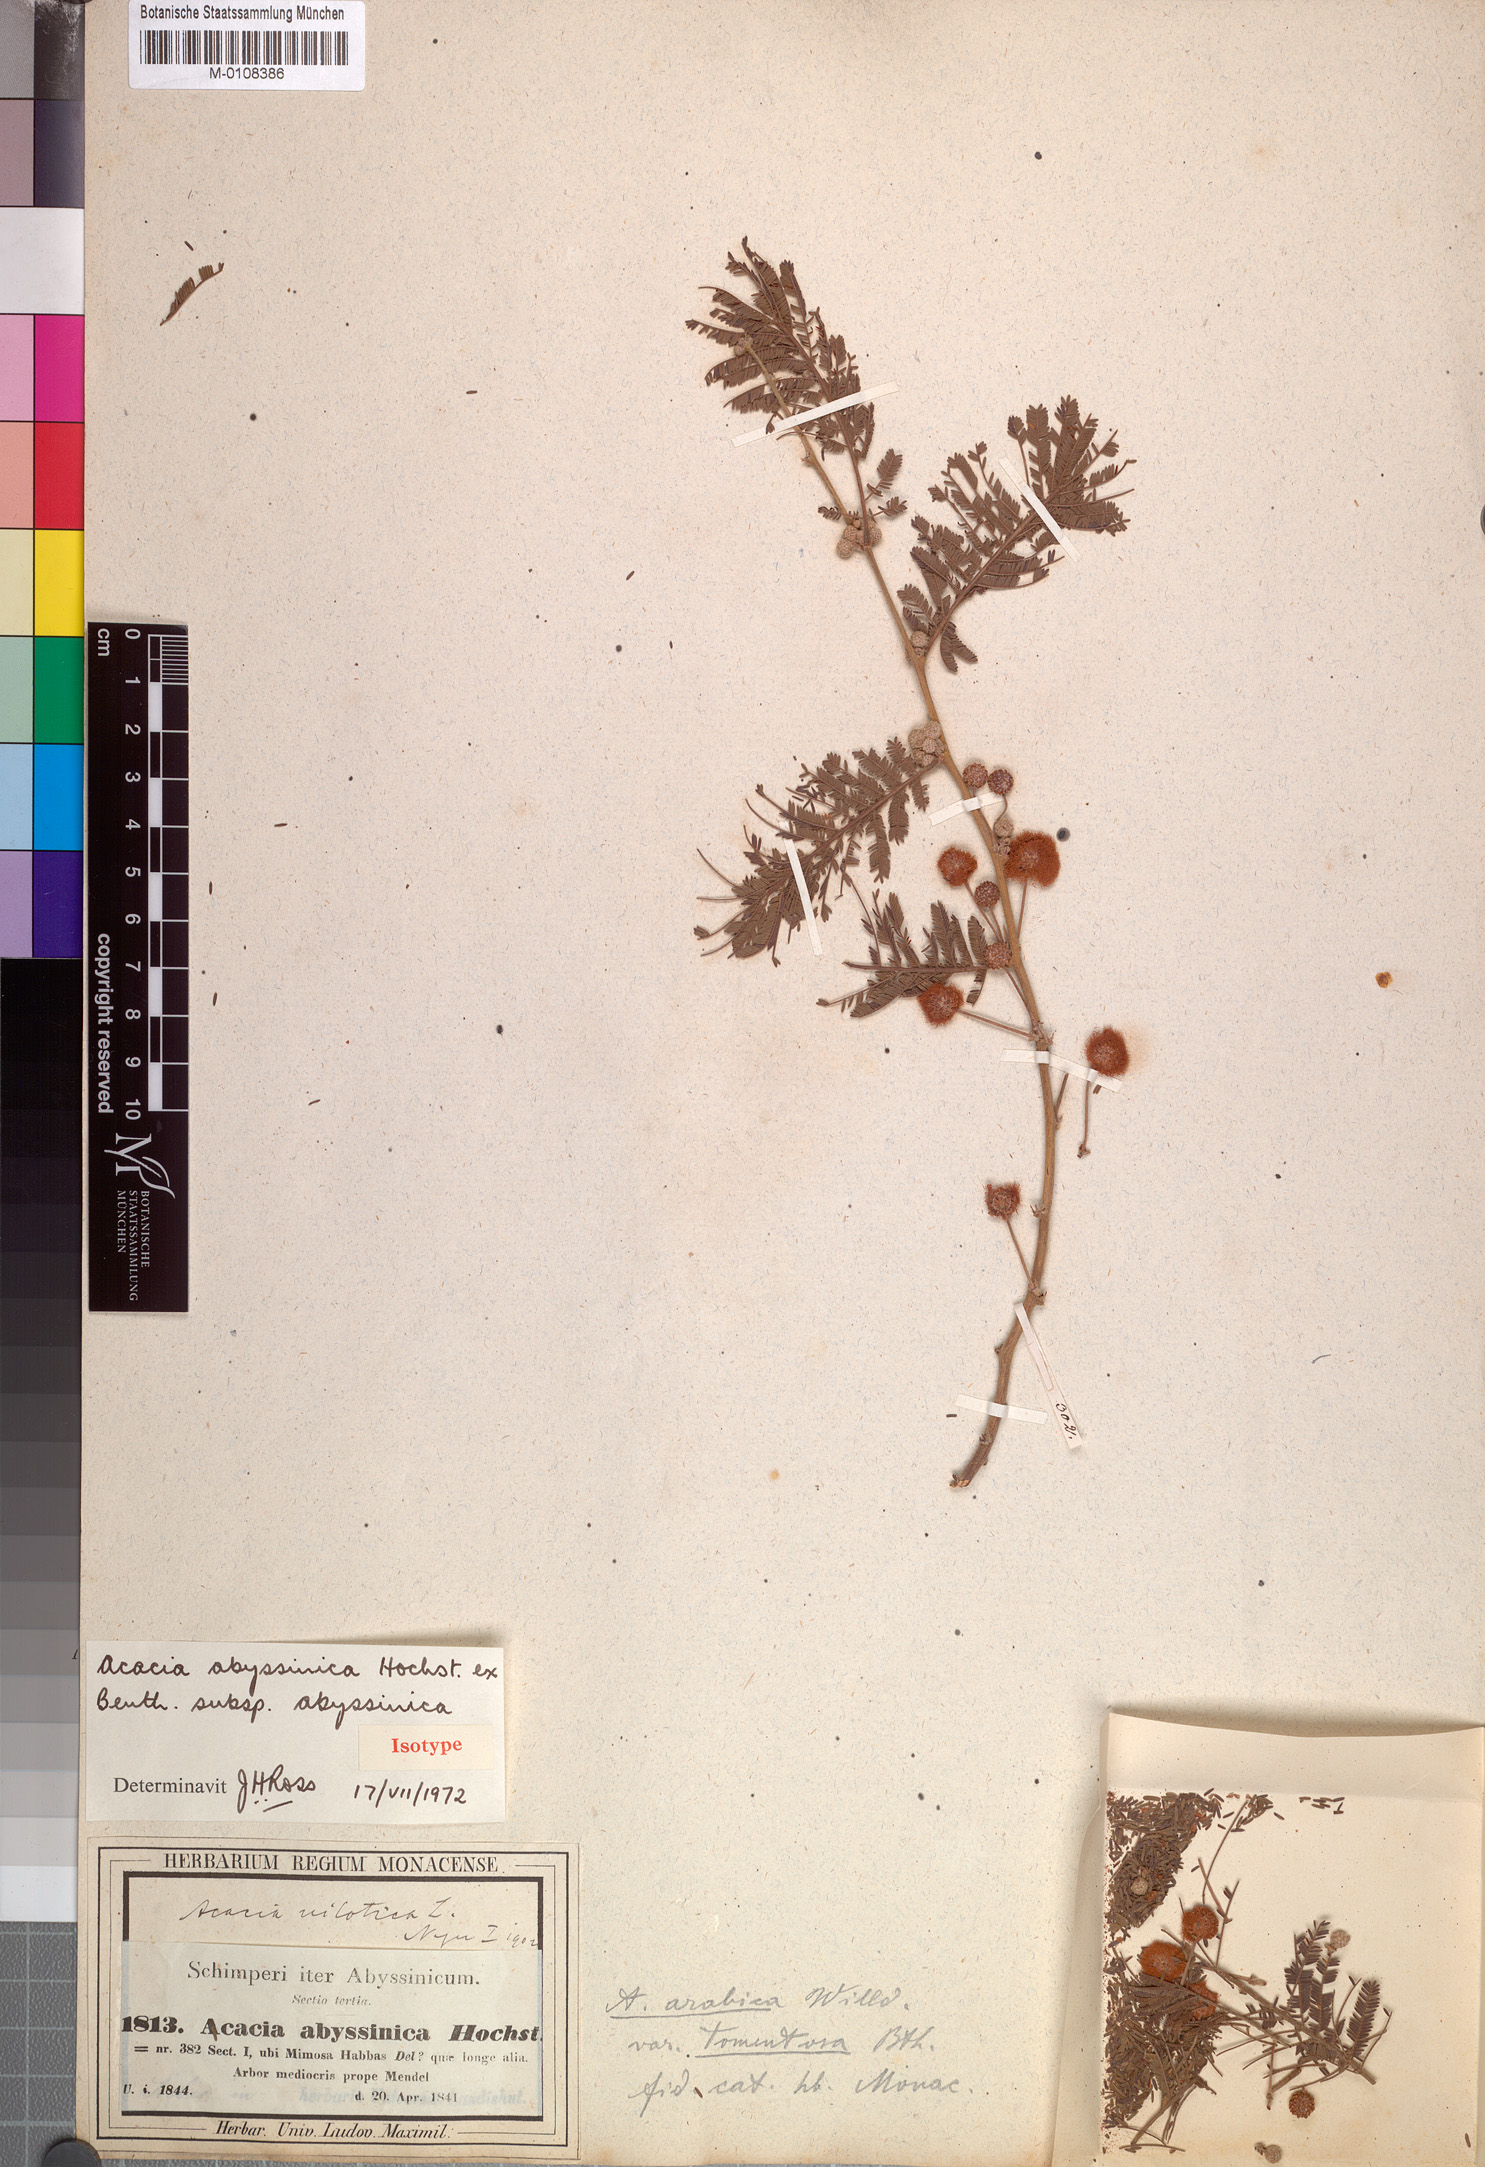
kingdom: Plantae
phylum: Tracheophyta
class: Magnoliopsida
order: Fabales
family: Fabaceae
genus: Vachellia
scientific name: Vachellia abyssinica
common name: Nyanga flat-top
